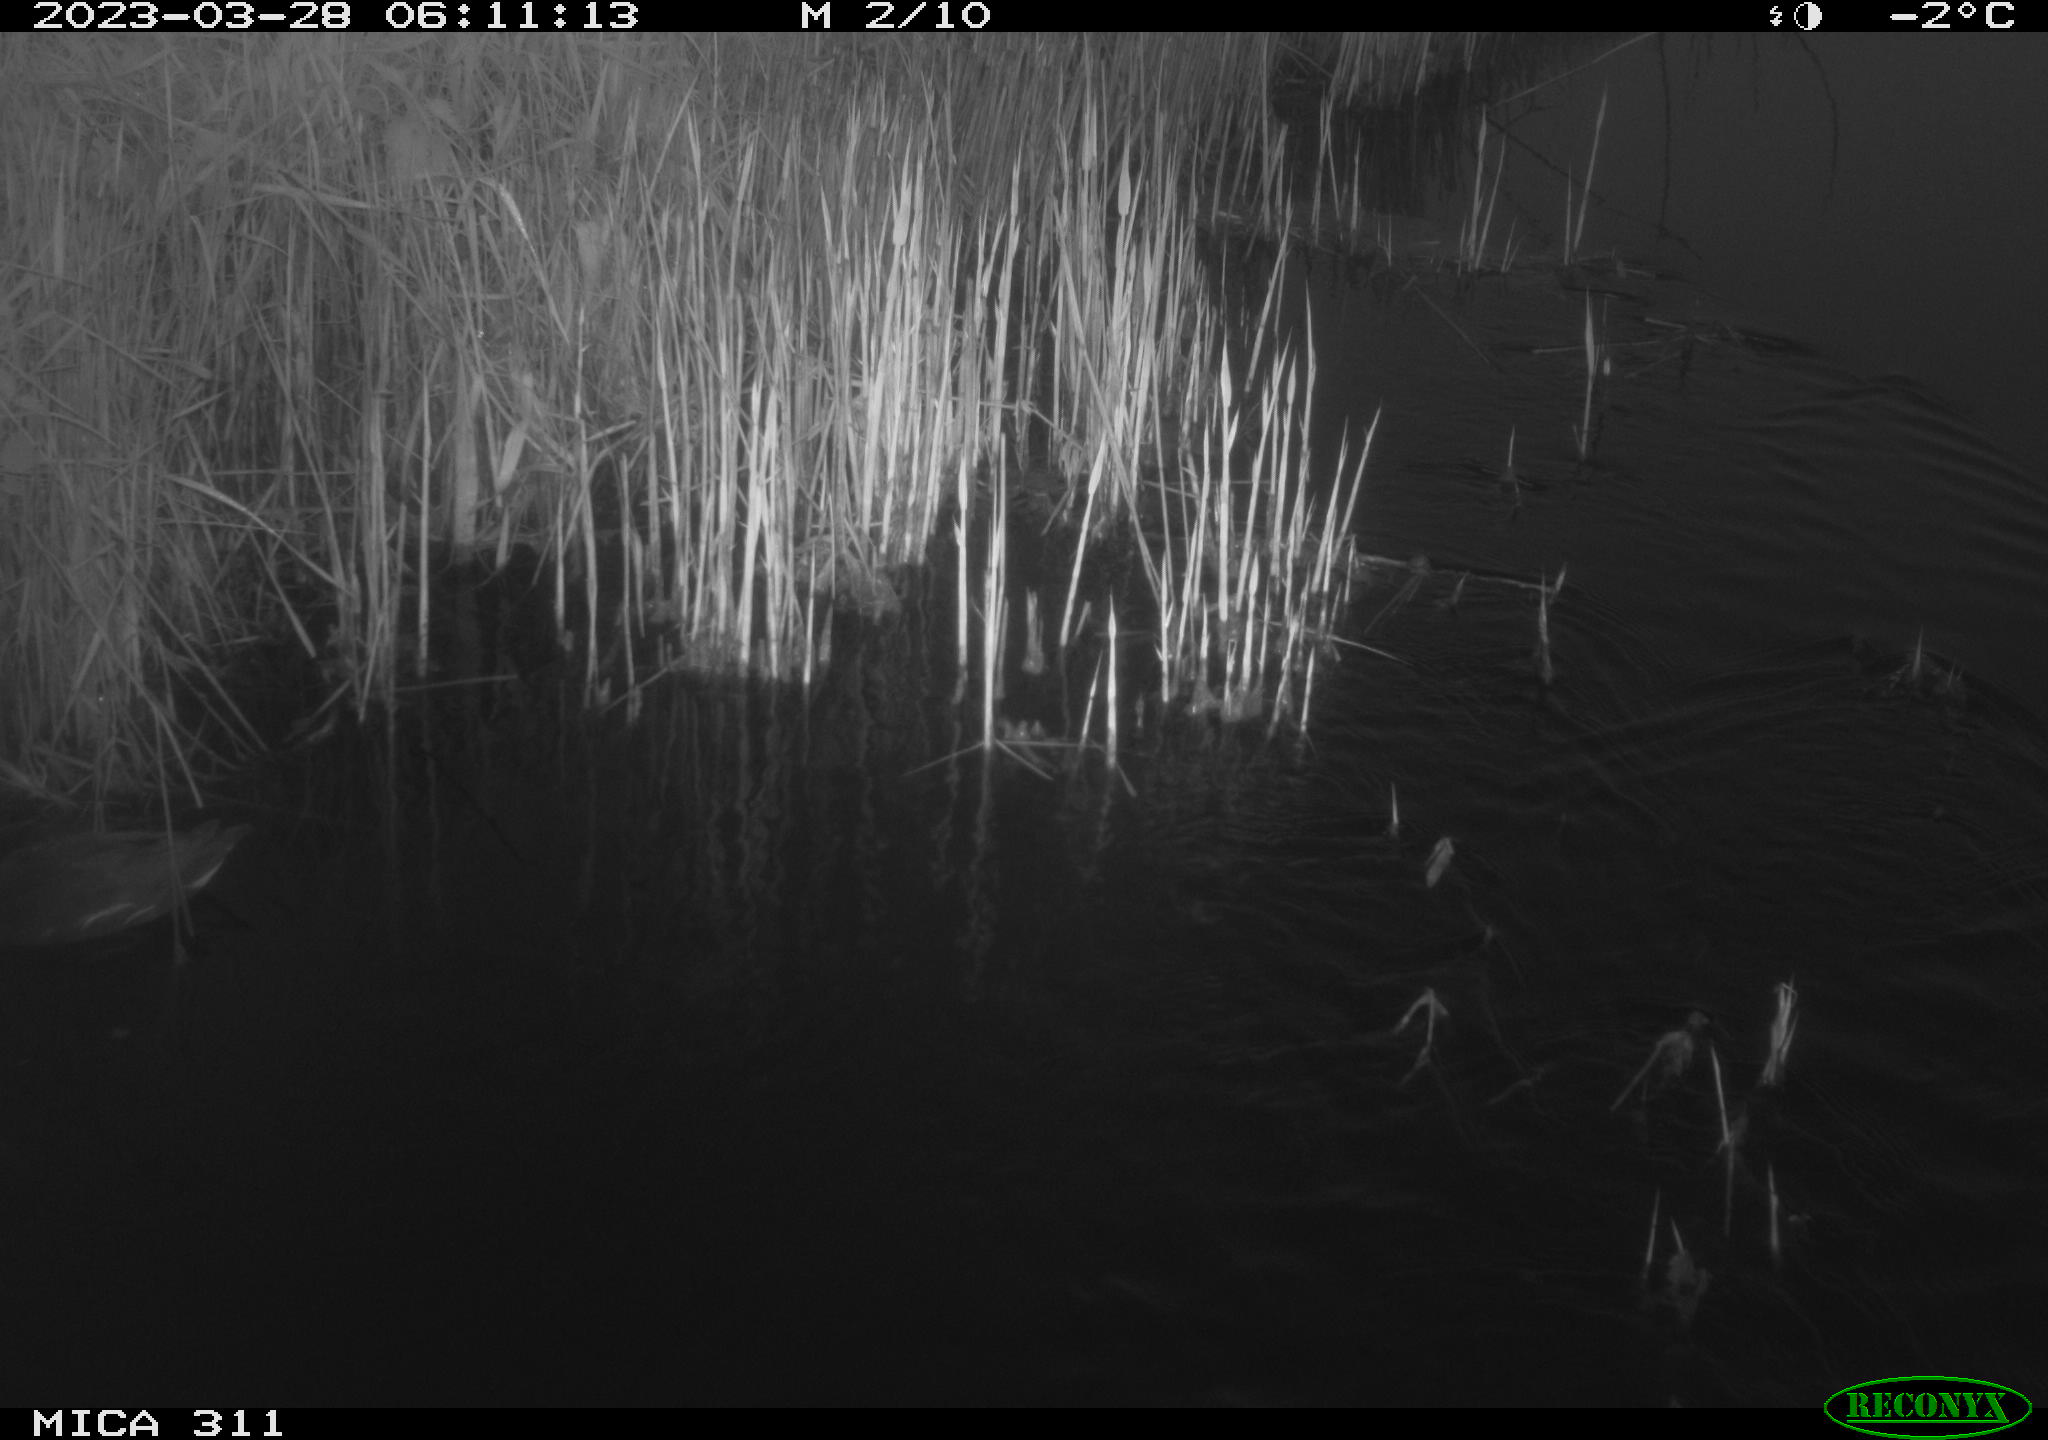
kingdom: Animalia
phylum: Chordata
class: Aves
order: Gruiformes
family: Rallidae
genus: Gallinula
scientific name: Gallinula chloropus
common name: Common moorhen
